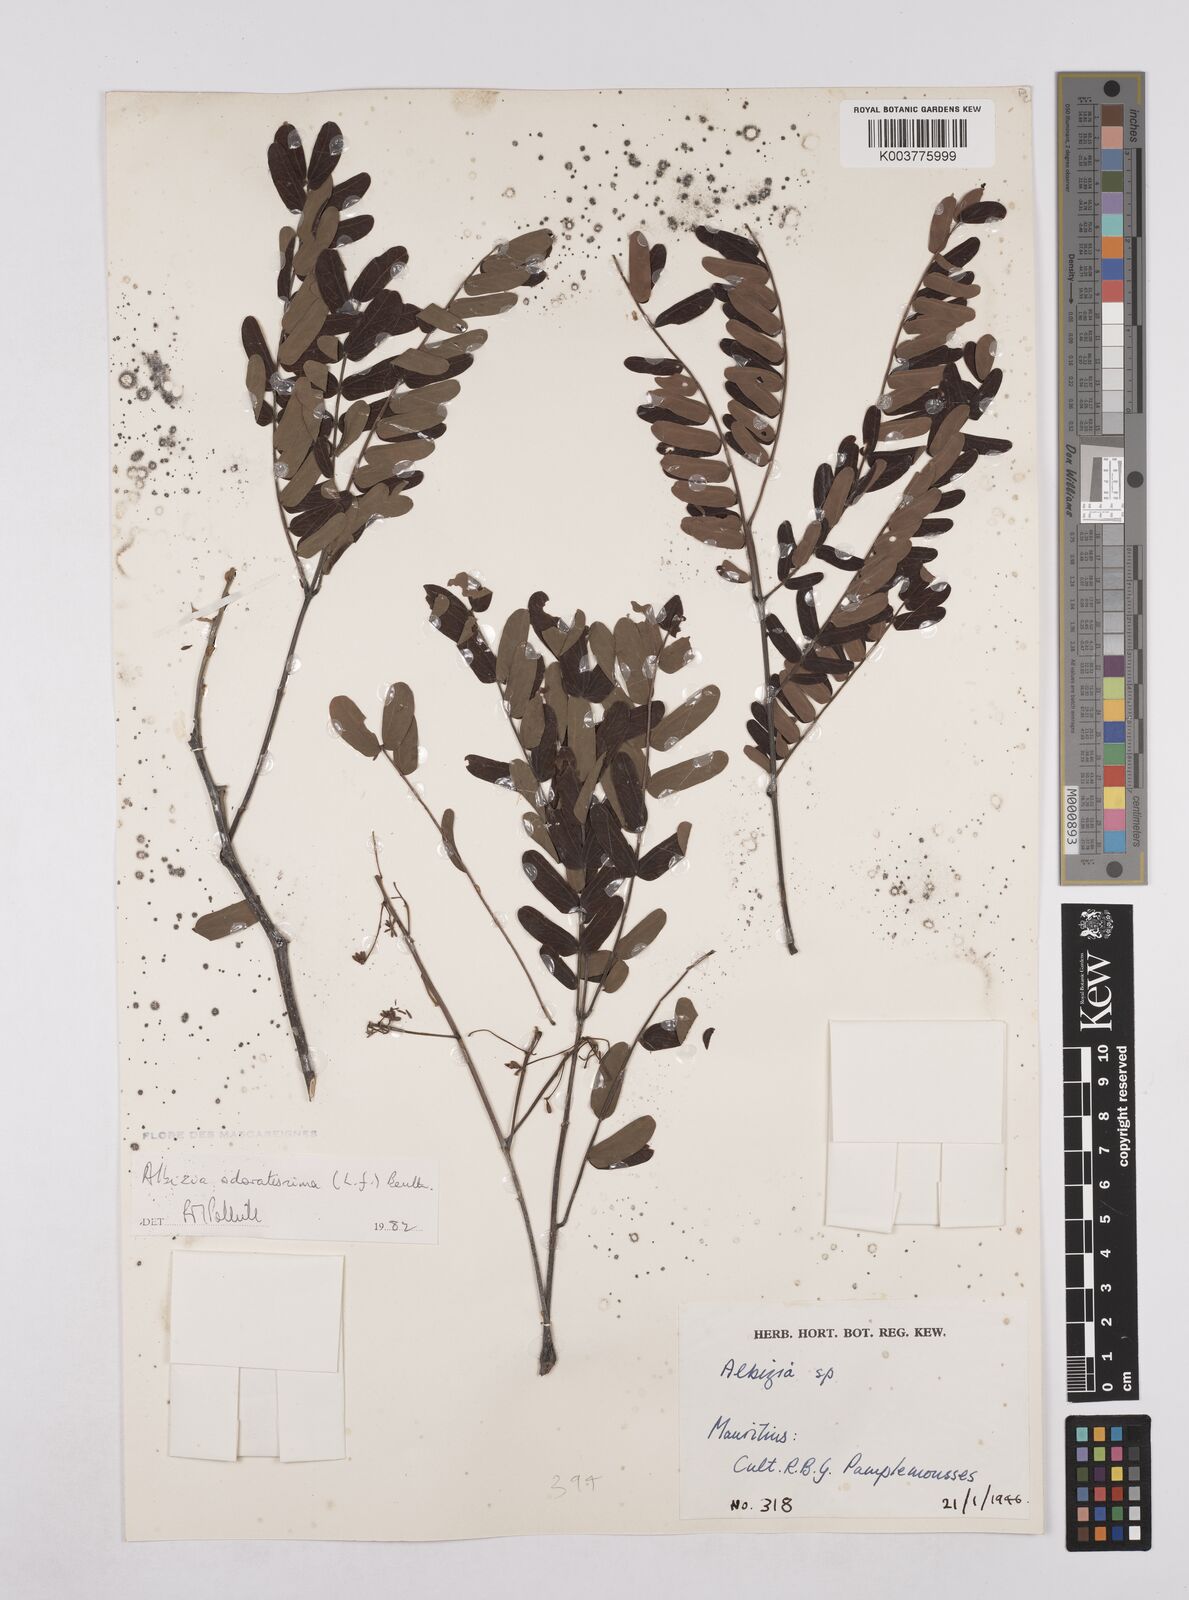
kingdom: Plantae
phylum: Tracheophyta
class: Magnoliopsida
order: Fabales
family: Fabaceae
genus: Albizia
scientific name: Albizia odoratissima
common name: Ceylon rosewood
